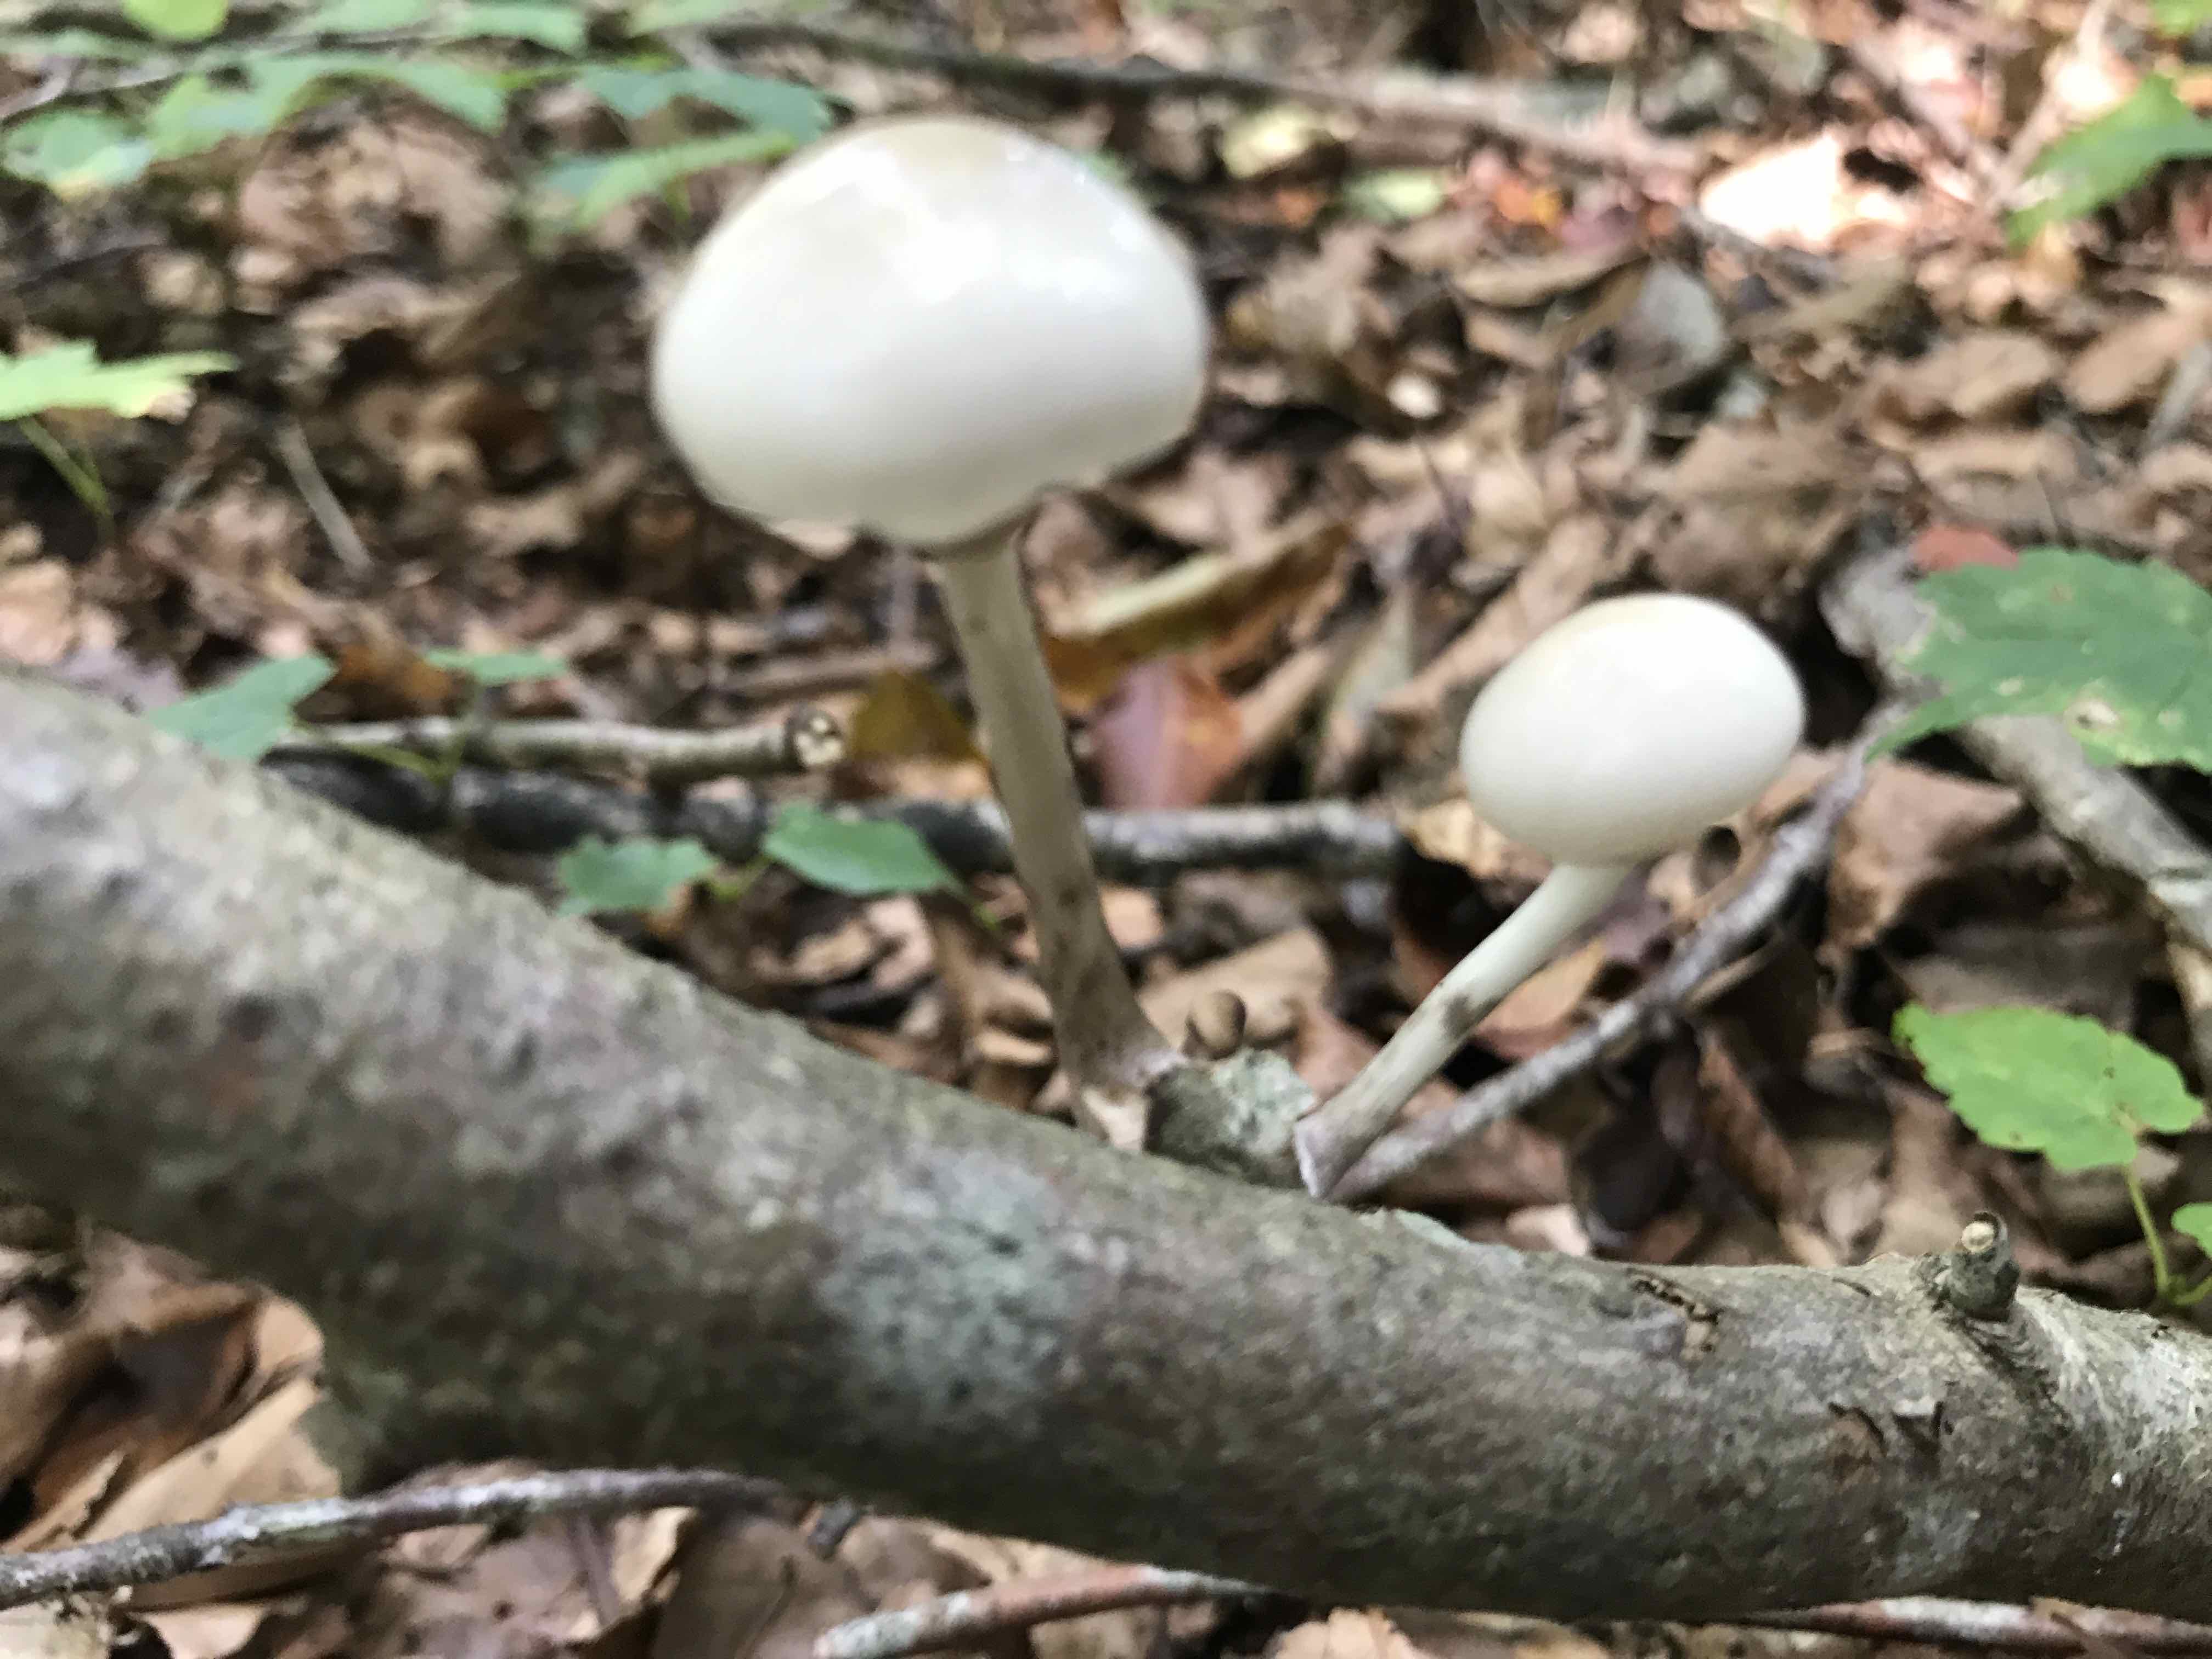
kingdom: Fungi
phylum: Basidiomycota
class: Agaricomycetes
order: Agaricales
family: Physalacriaceae
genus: Mucidula
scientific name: Mucidula mucida
